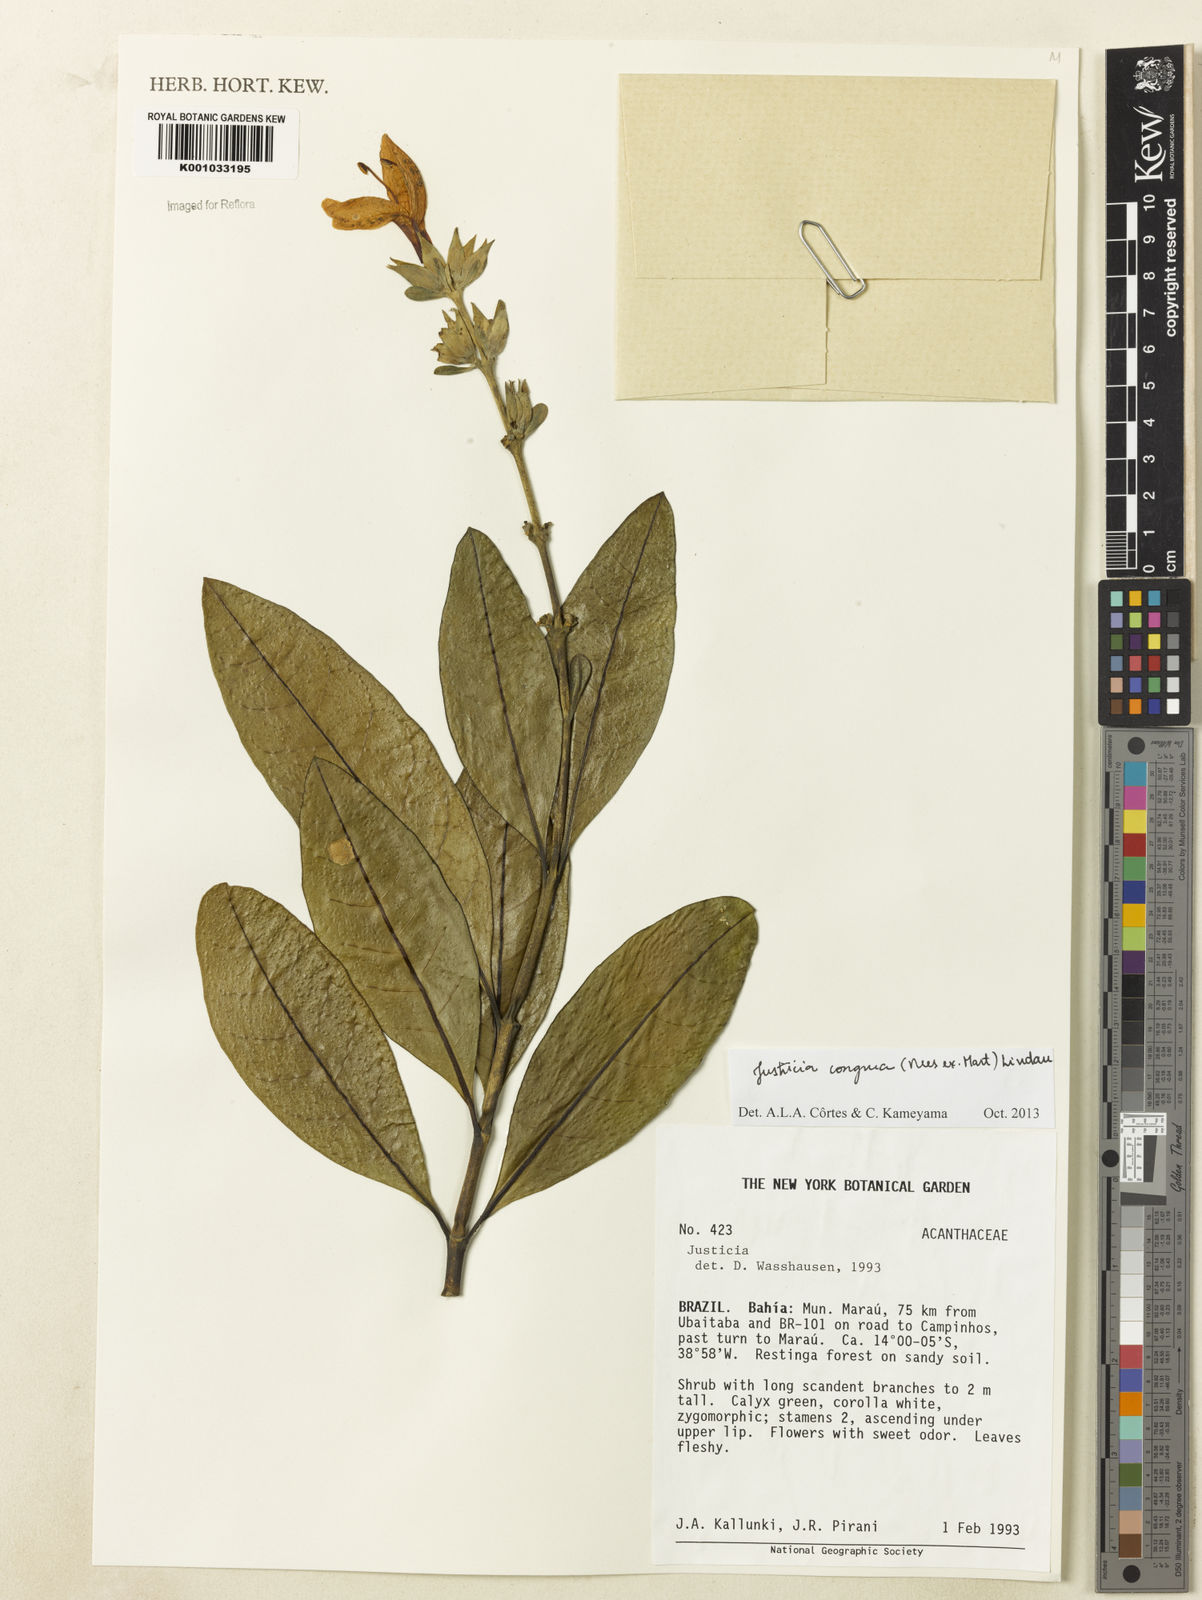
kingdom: Plantae
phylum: Tracheophyta
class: Magnoliopsida
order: Lamiales
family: Acanthaceae
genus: Justicia
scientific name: Justicia congrua
